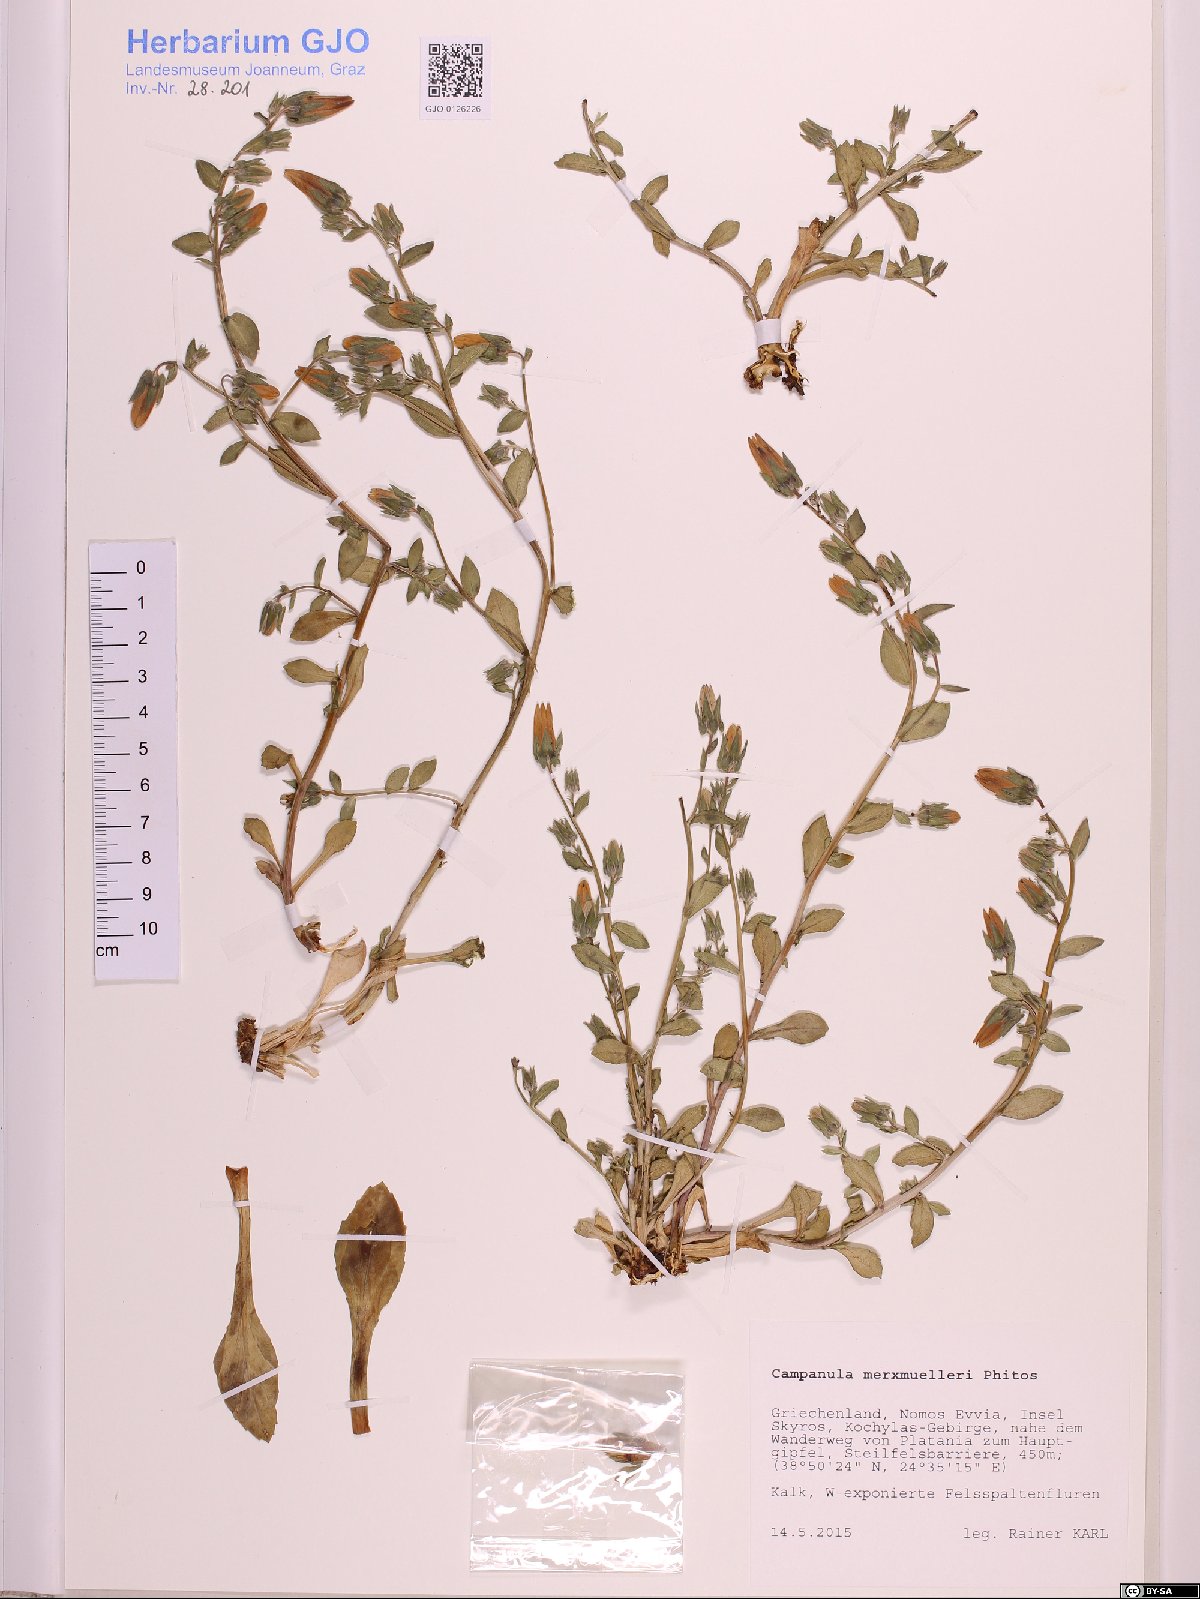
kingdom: Plantae
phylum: Tracheophyta
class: Magnoliopsida
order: Asterales
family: Campanulaceae
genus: Campanula
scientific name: Campanula merxmuelleri
